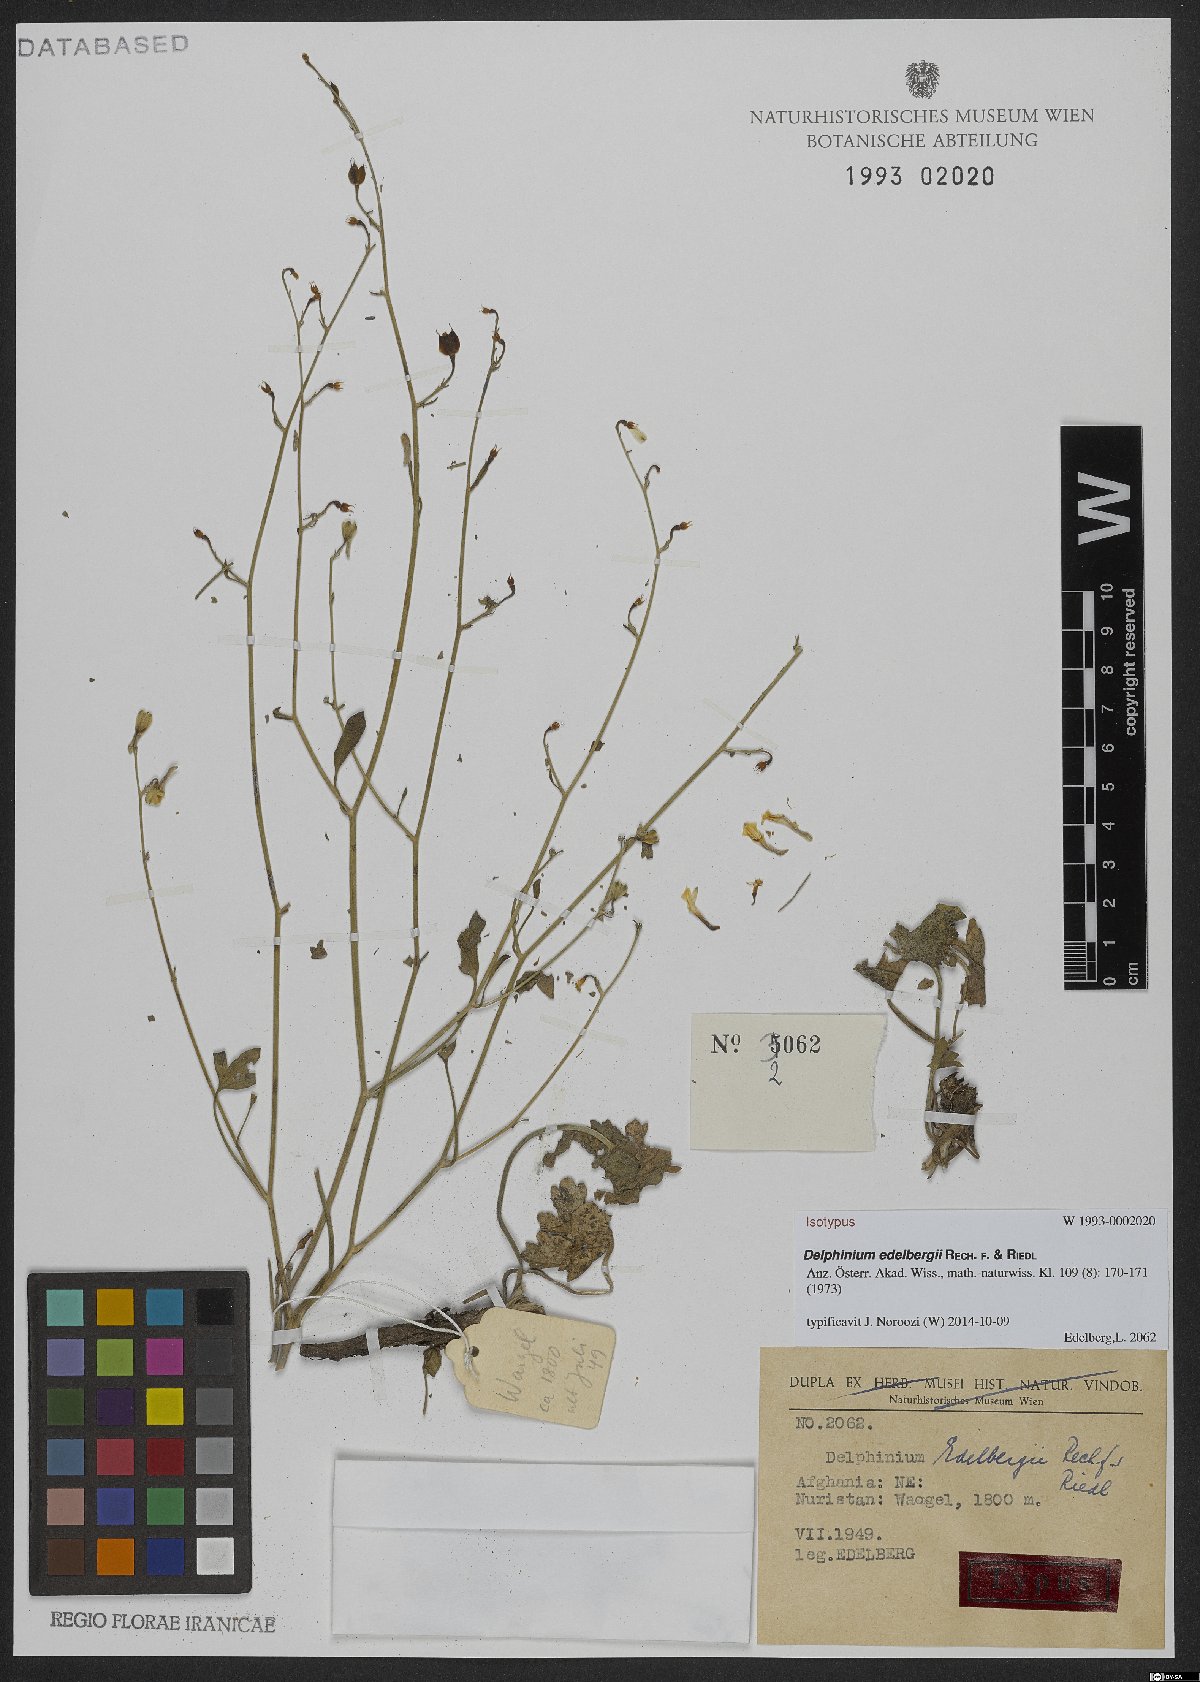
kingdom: Plantae
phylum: Tracheophyta
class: Magnoliopsida
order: Ranunculales
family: Ranunculaceae
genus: Delphinium
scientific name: Delphinium edelbergii
